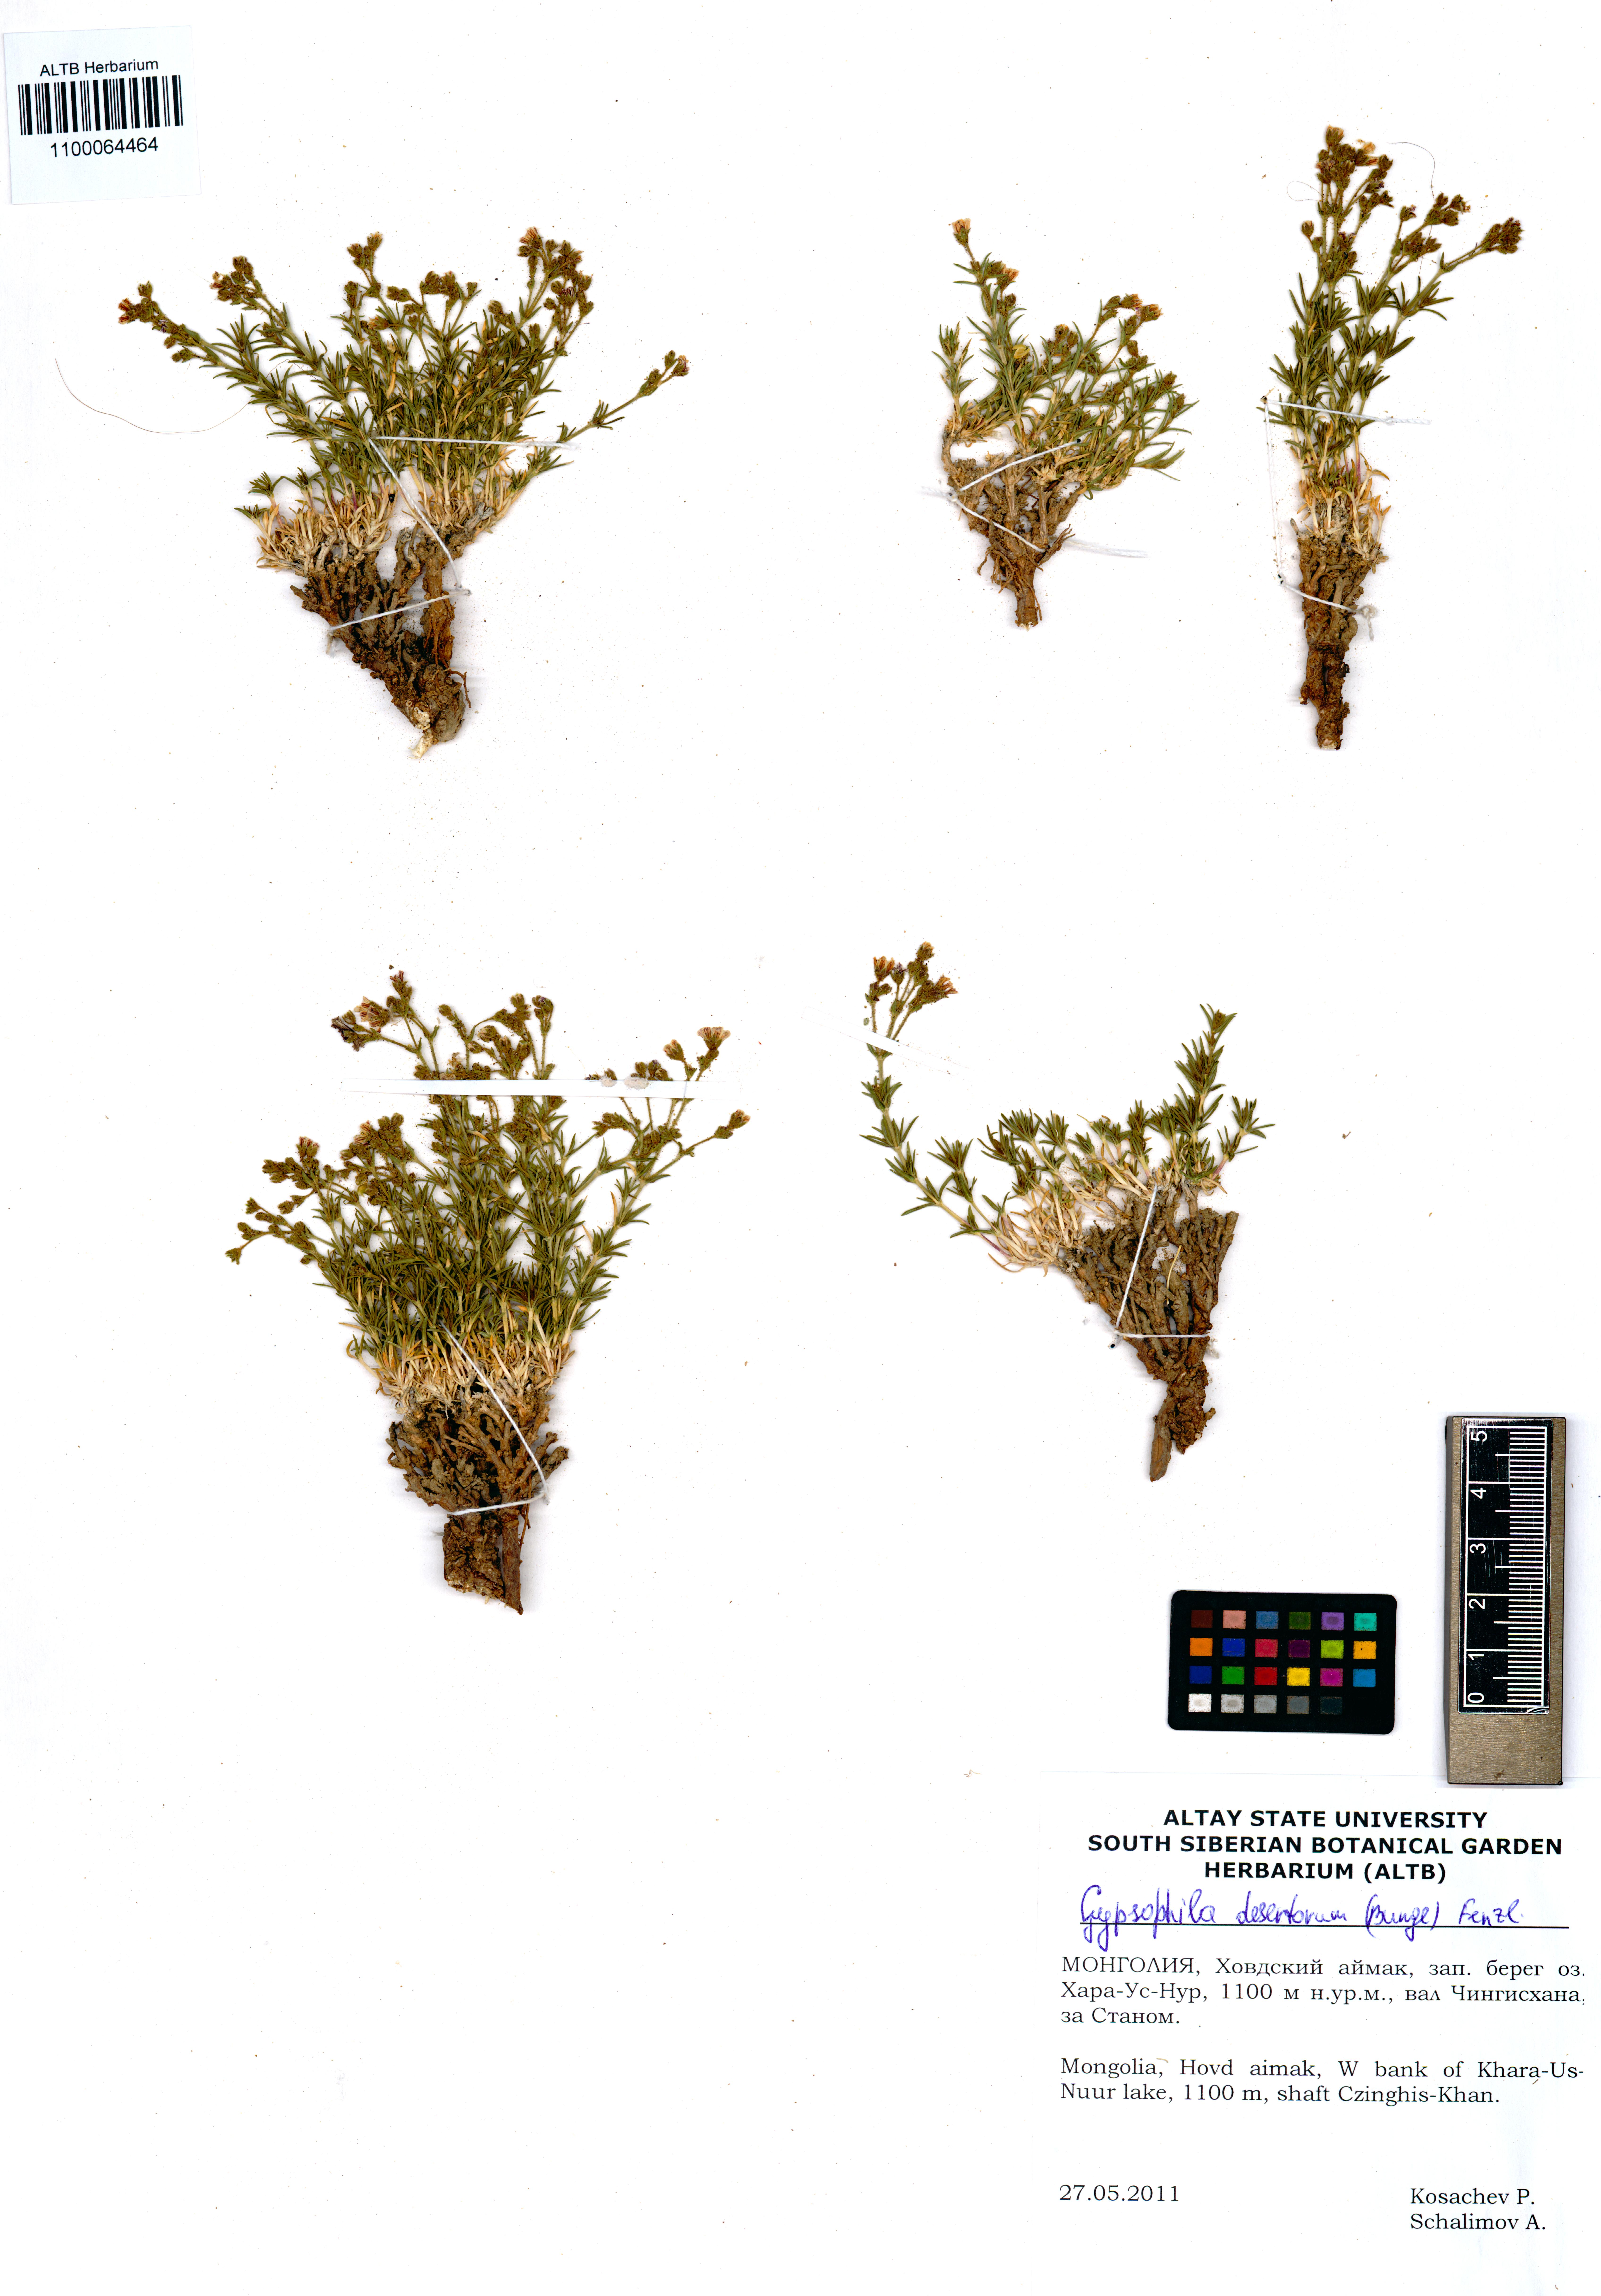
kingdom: Plantae
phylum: Tracheophyta
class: Magnoliopsida
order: Caryophyllales
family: Caryophyllaceae
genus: Heterochroa
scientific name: Heterochroa desertorum
